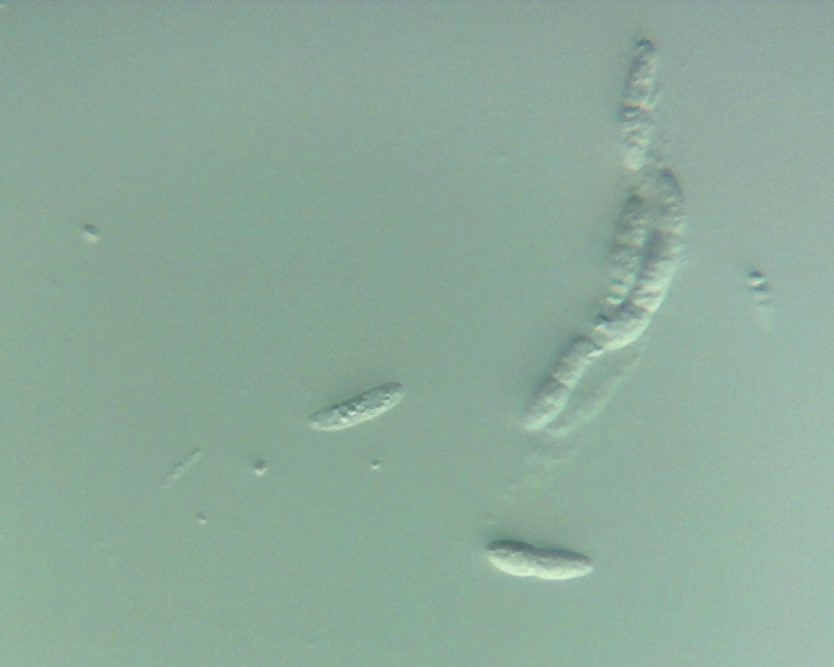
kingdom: Fungi
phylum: Ascomycota
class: Sordariomycetes
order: Diaporthales
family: Erythrogloeaceae
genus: Dendrostoma
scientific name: Dendrostoma leiphaemia
